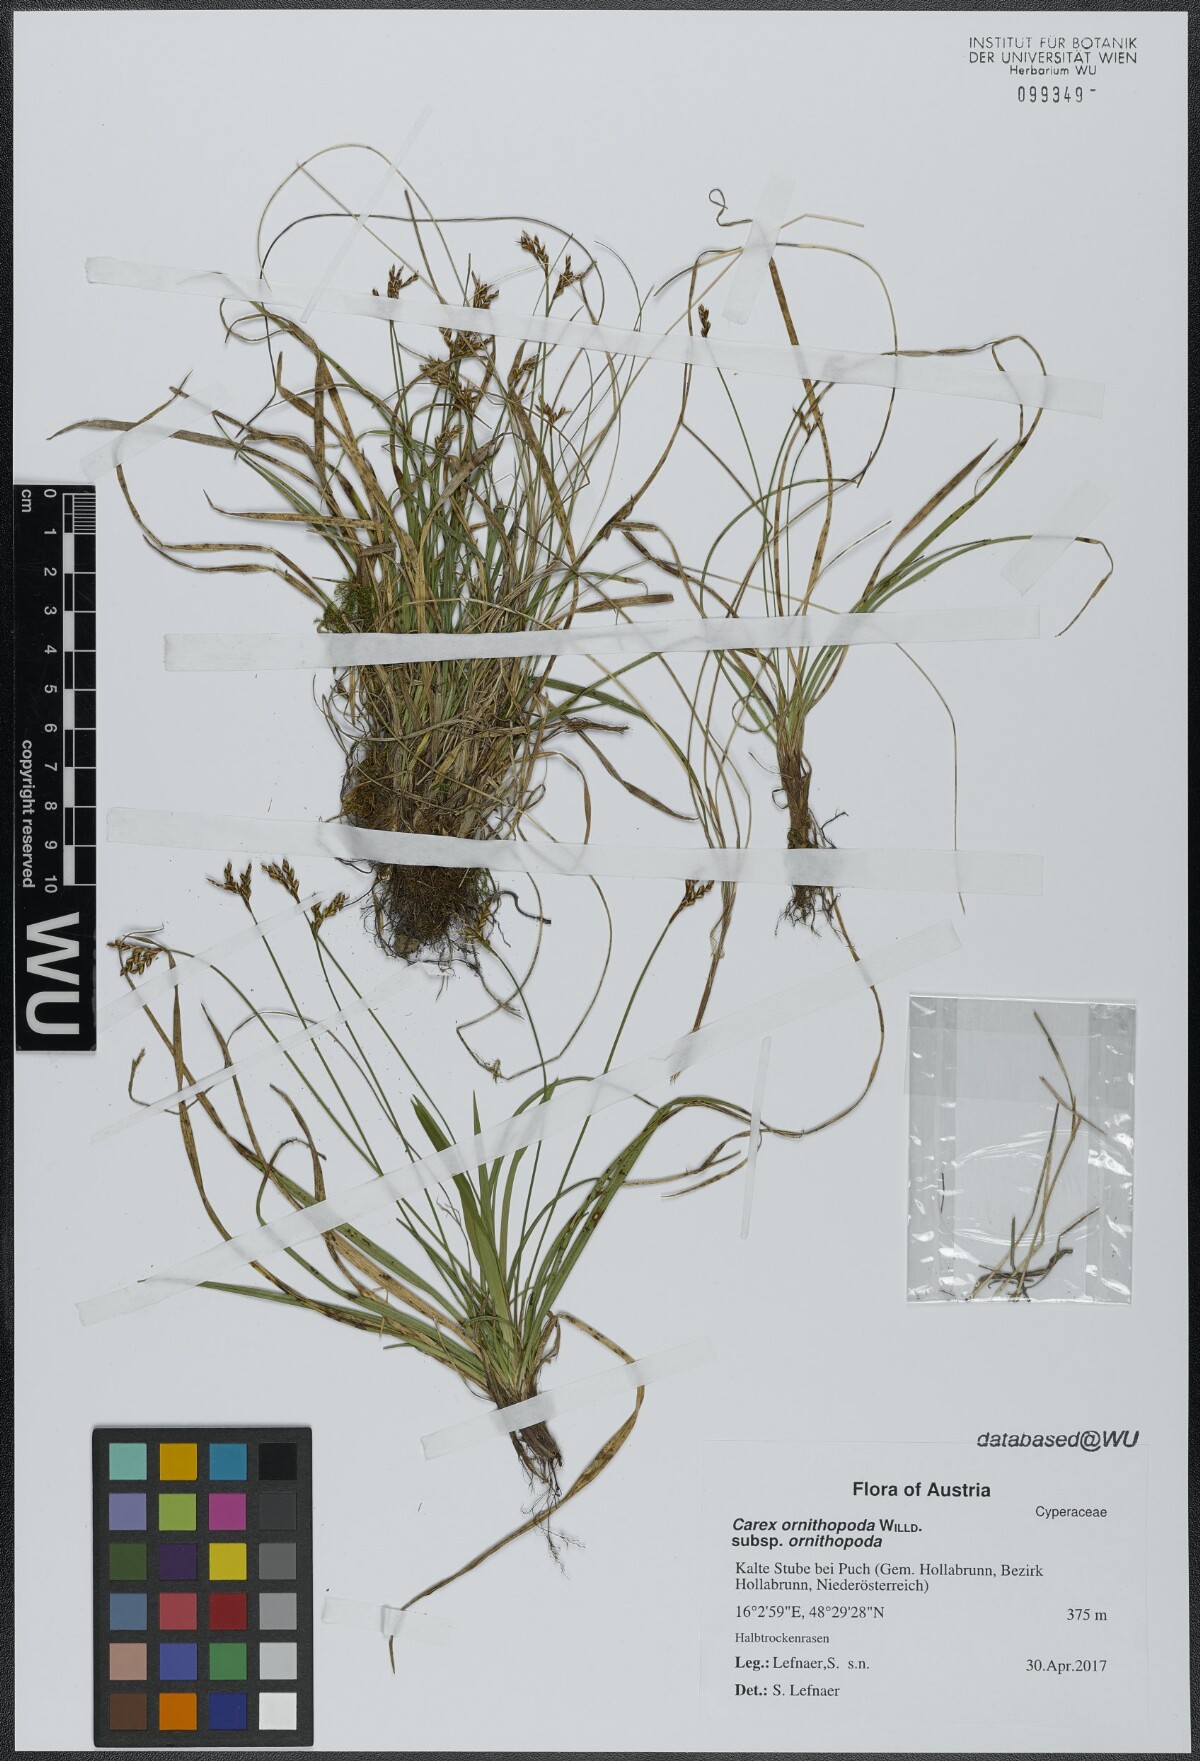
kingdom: Plantae
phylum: Tracheophyta
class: Liliopsida
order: Poales
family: Cyperaceae
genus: Carex
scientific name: Carex ornithopoda
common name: Bird's-foot sedge
